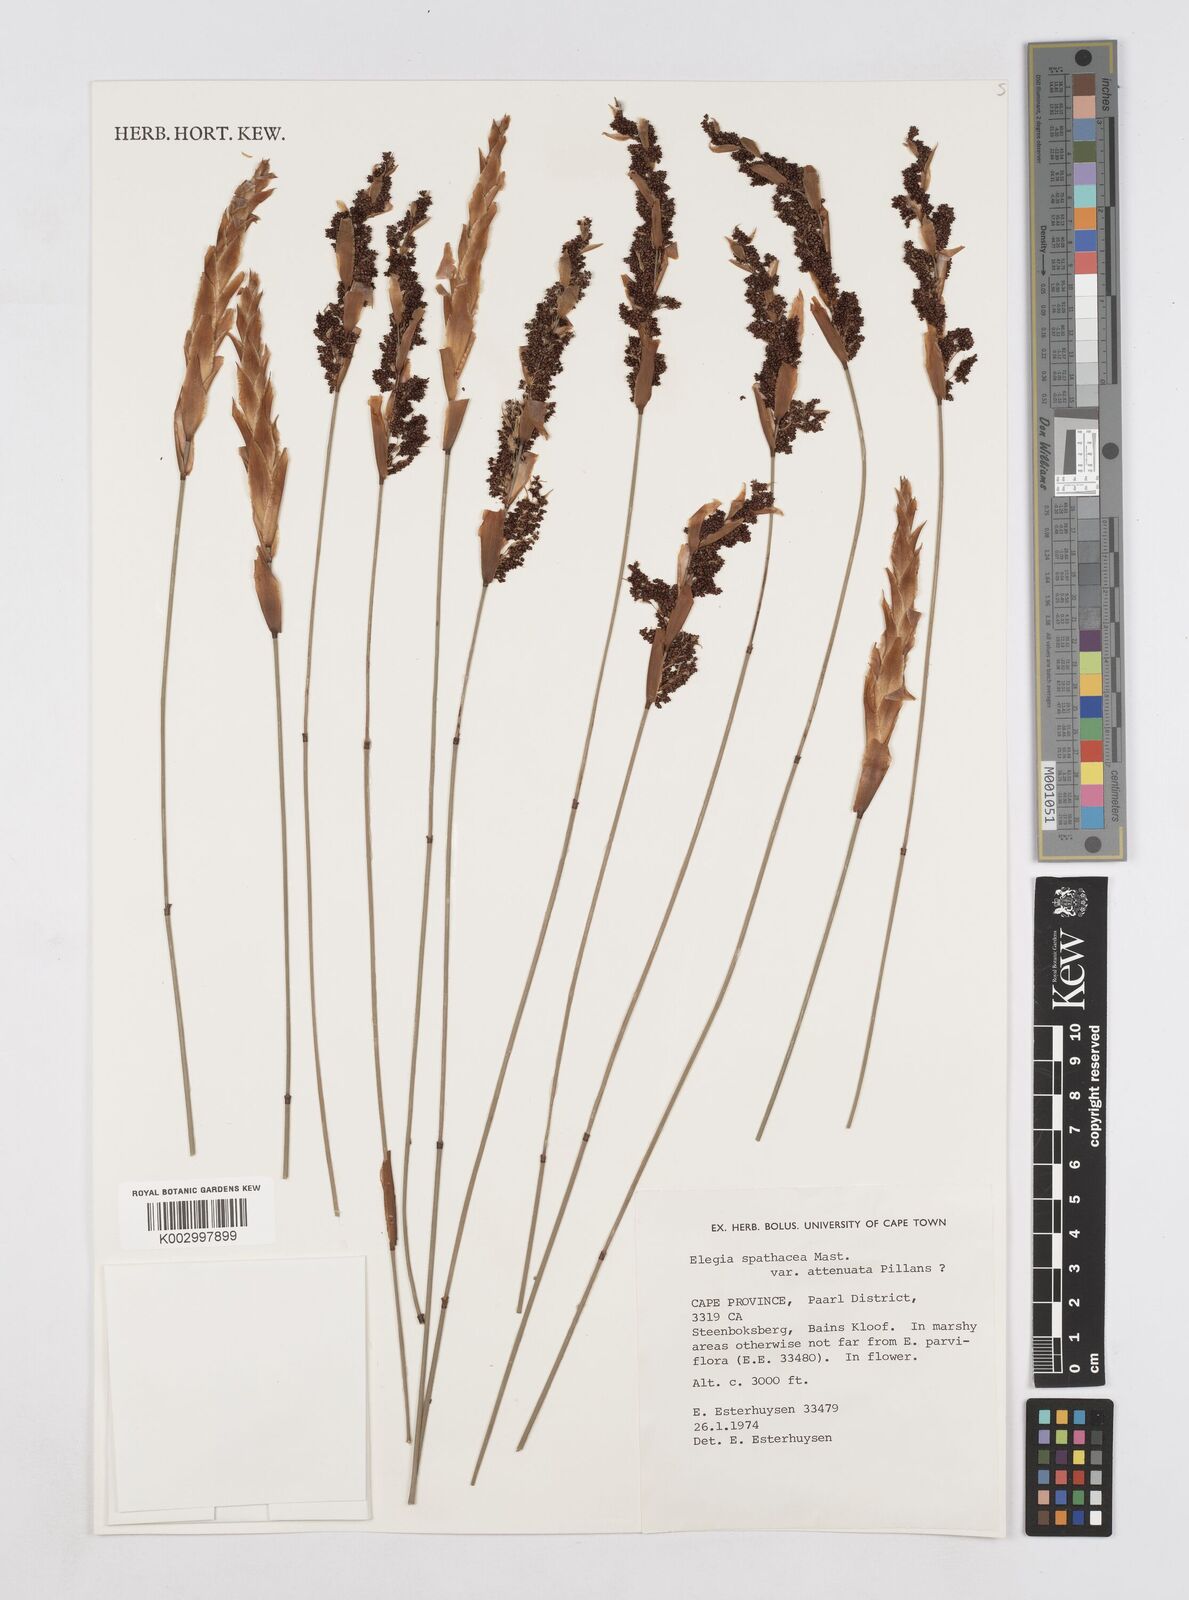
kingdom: Plantae
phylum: Tracheophyta
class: Liliopsida
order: Poales
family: Restionaceae
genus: Elegia
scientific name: Elegia rigida
